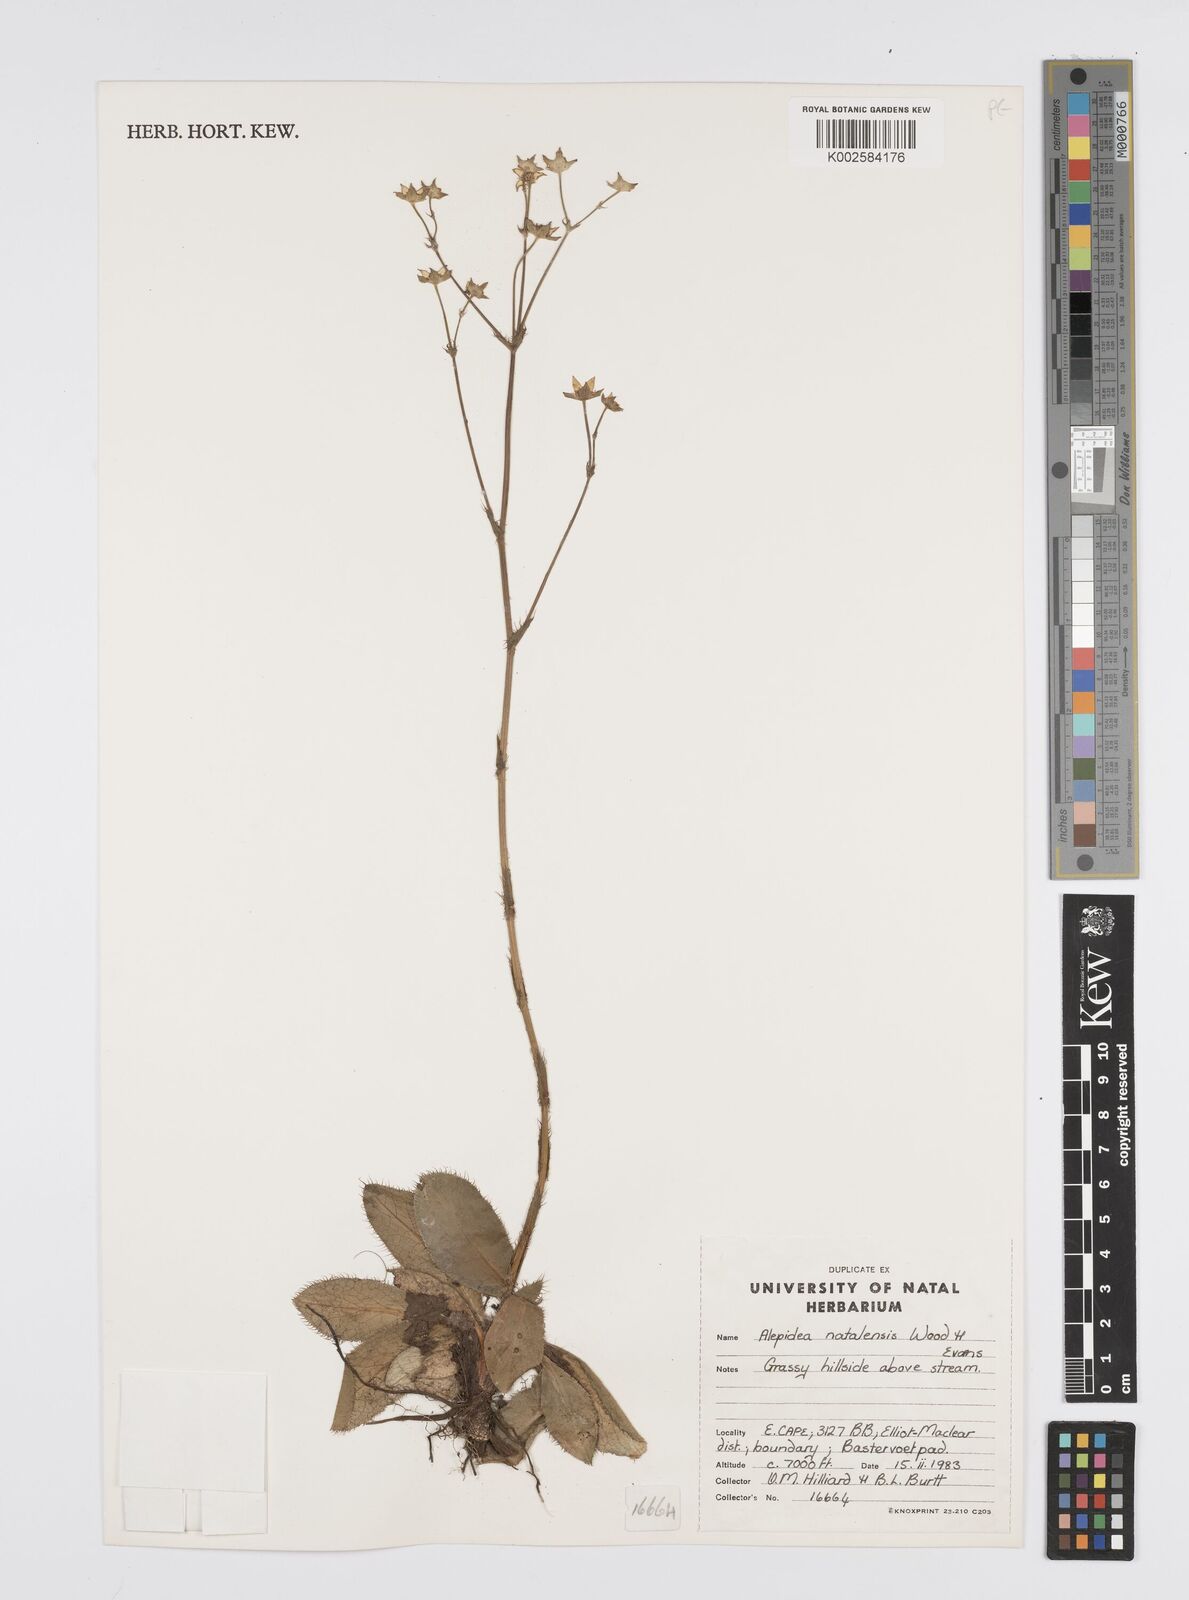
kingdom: Plantae
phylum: Tracheophyta
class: Magnoliopsida
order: Apiales
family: Apiaceae
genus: Alepidea
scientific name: Alepidea natalensis
